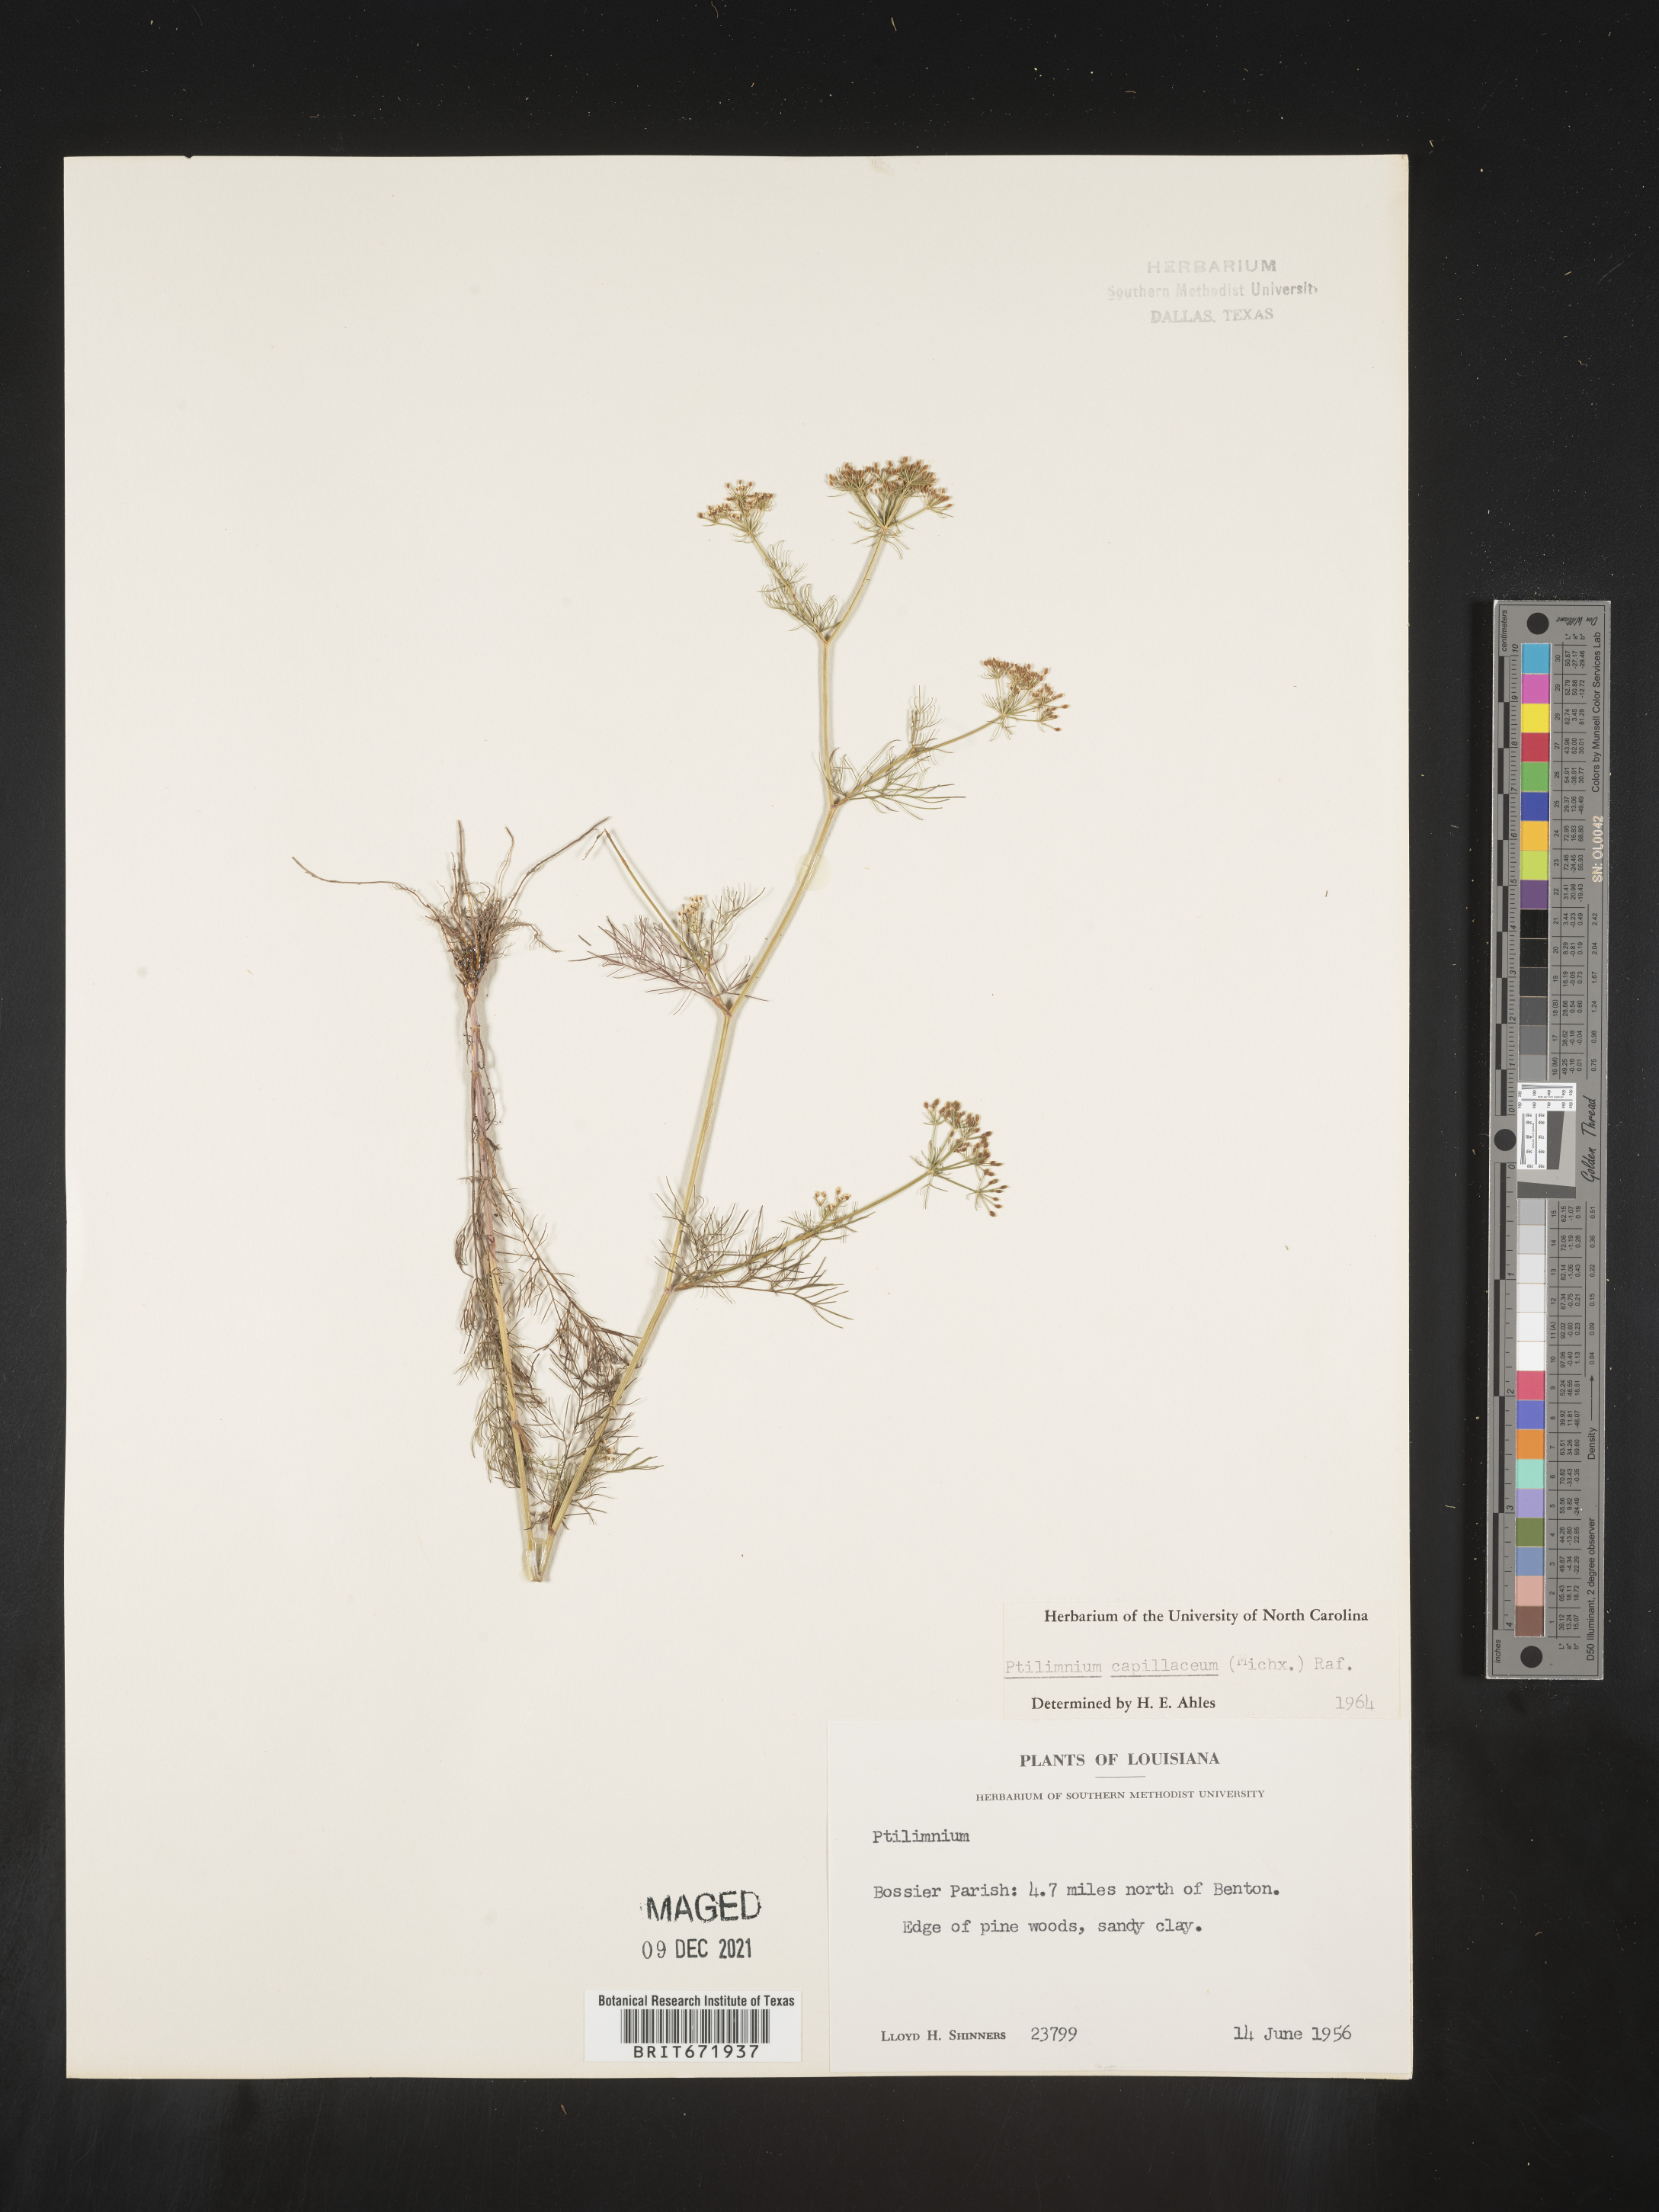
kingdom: Plantae
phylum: Tracheophyta
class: Magnoliopsida
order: Apiales
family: Apiaceae
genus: Ptilimnium
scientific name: Ptilimnium capillaceum
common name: Herbwilliam
